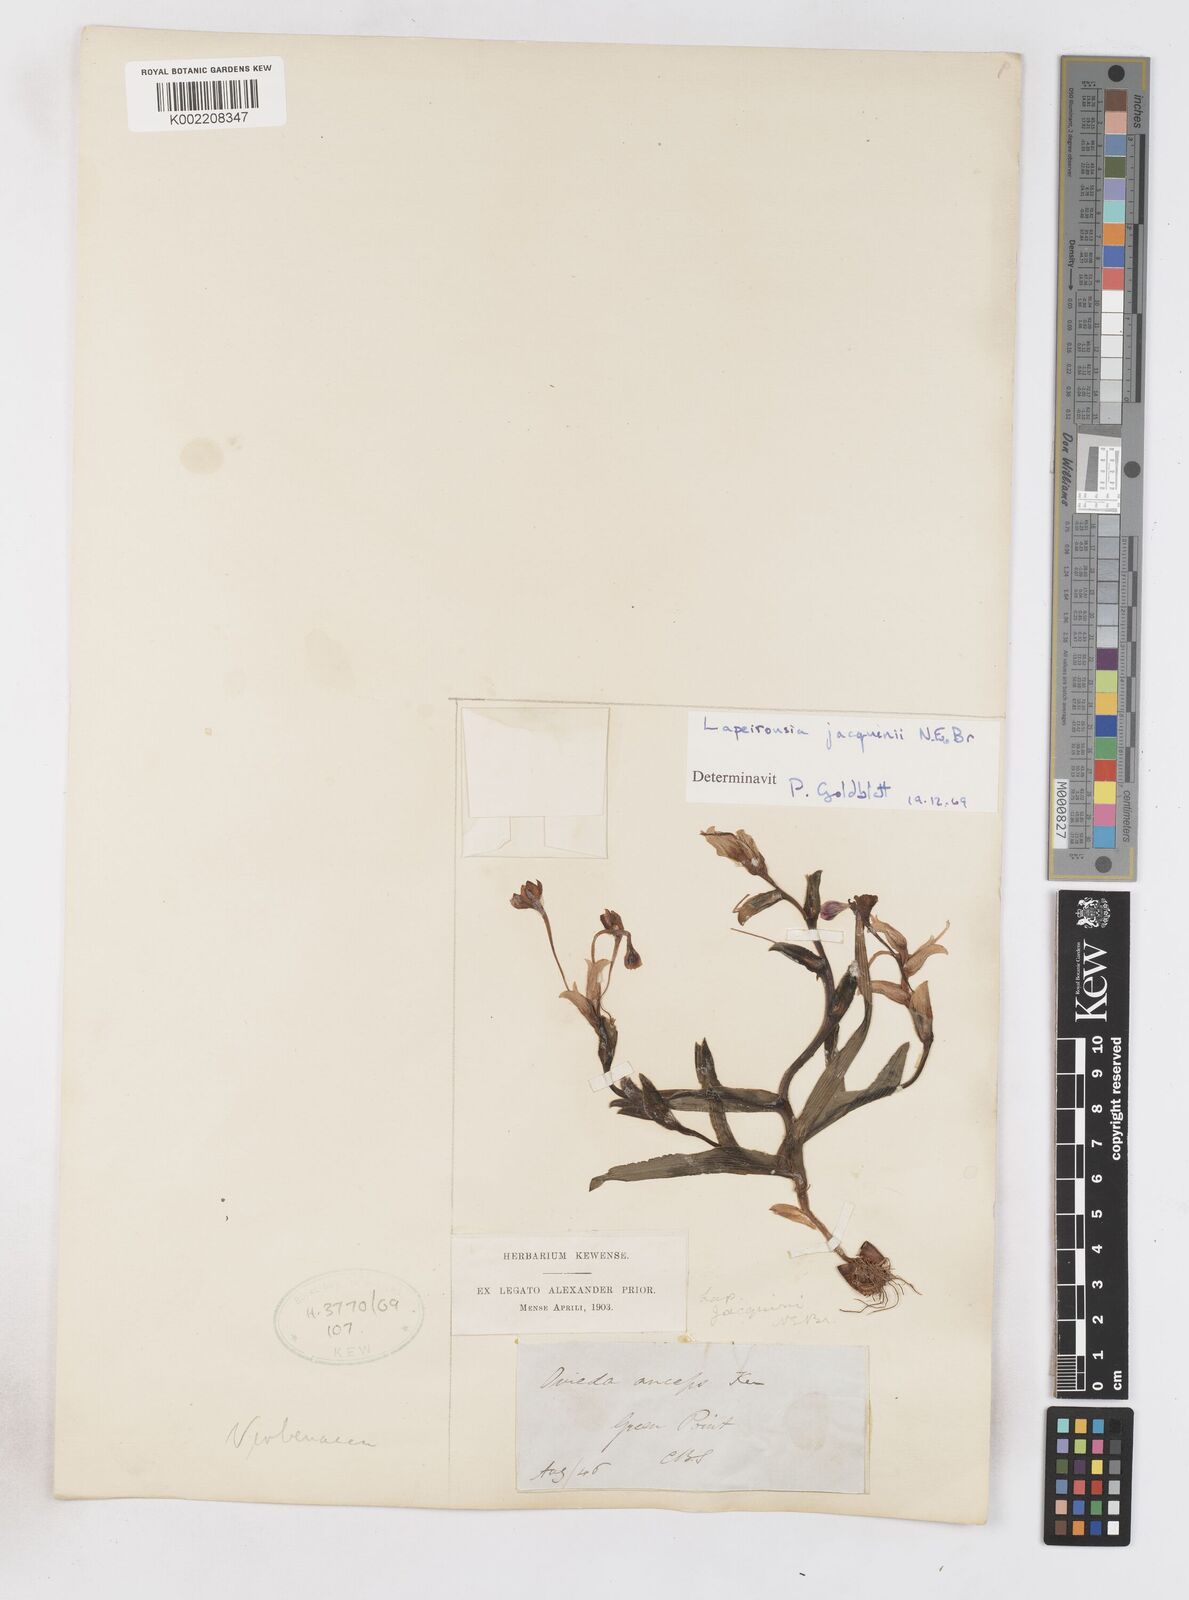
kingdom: Plantae
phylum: Tracheophyta
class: Liliopsida
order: Asparagales
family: Iridaceae
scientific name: Iridaceae
